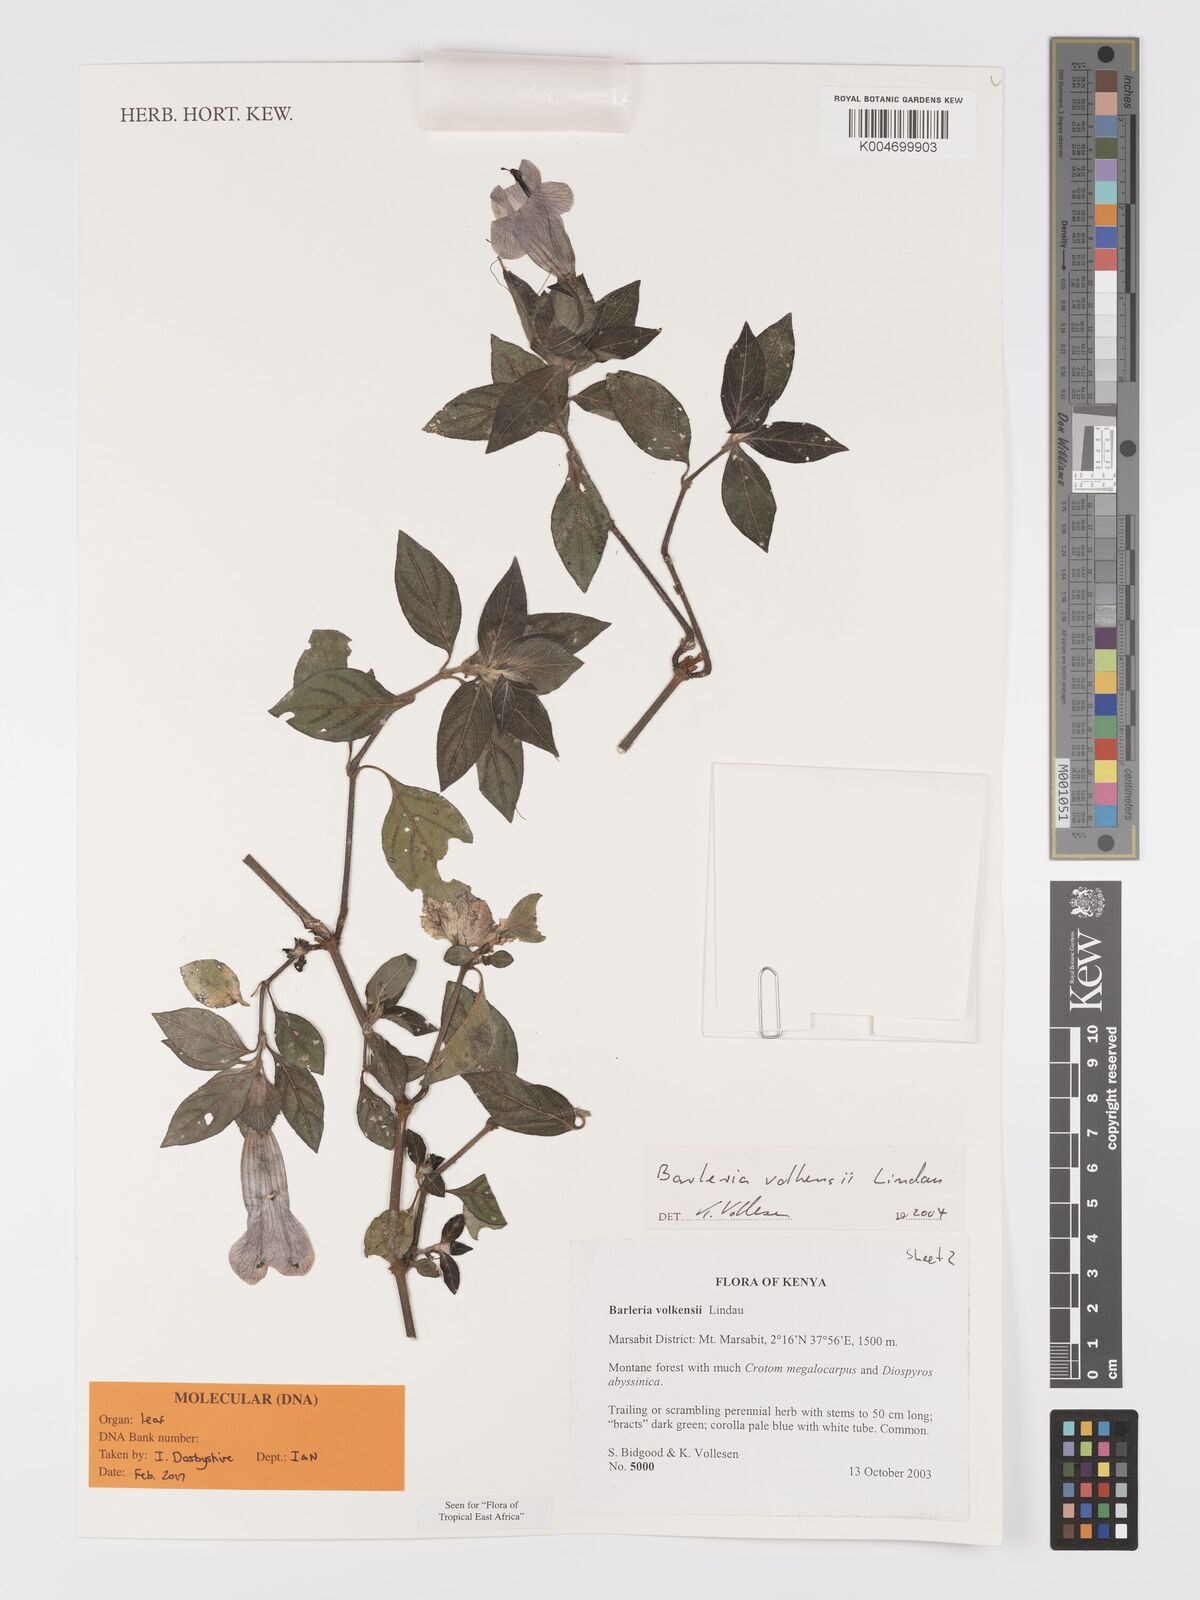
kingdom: Plantae
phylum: Tracheophyta
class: Magnoliopsida
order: Lamiales
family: Acanthaceae
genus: Barleria
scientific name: Barleria volkensii
